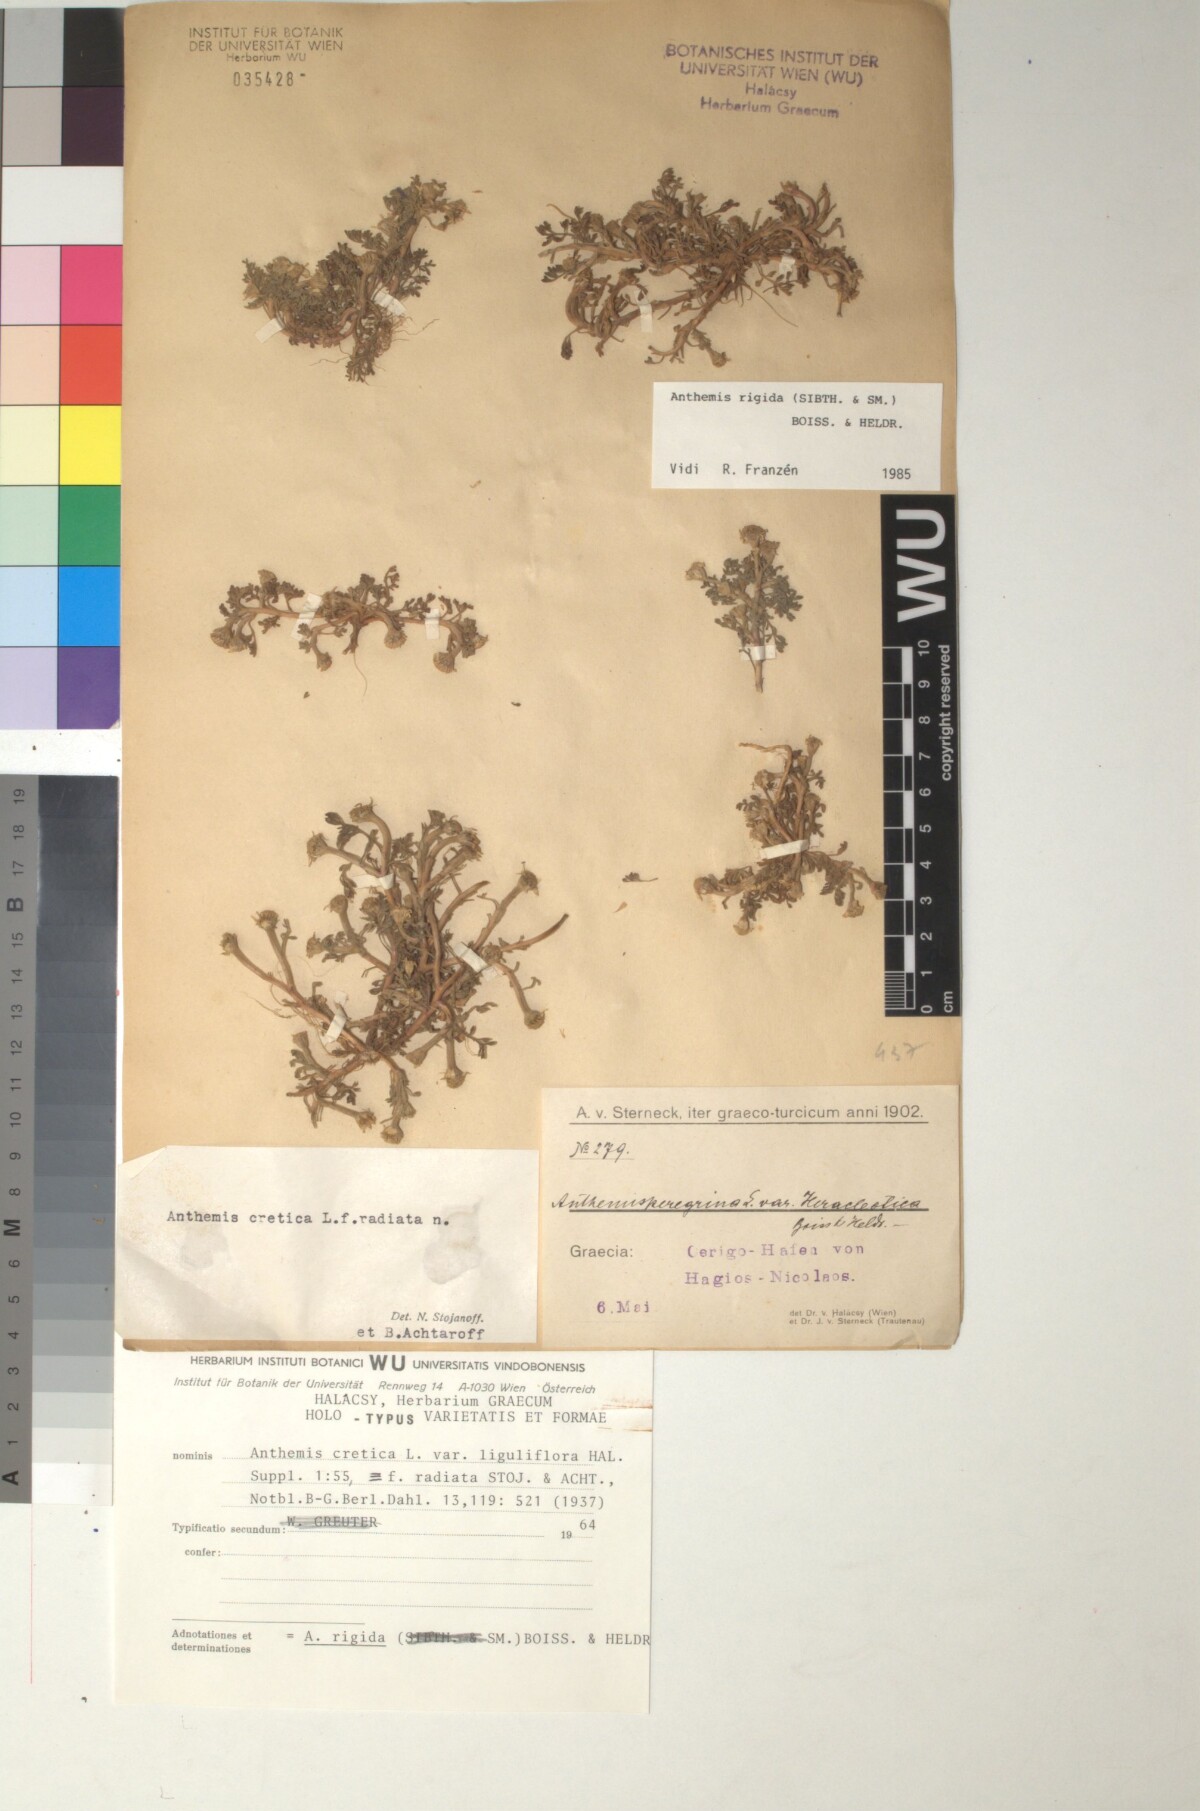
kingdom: Plantae
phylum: Tracheophyta
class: Magnoliopsida
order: Asterales
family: Asteraceae
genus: Anthemis
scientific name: Anthemis rigida
